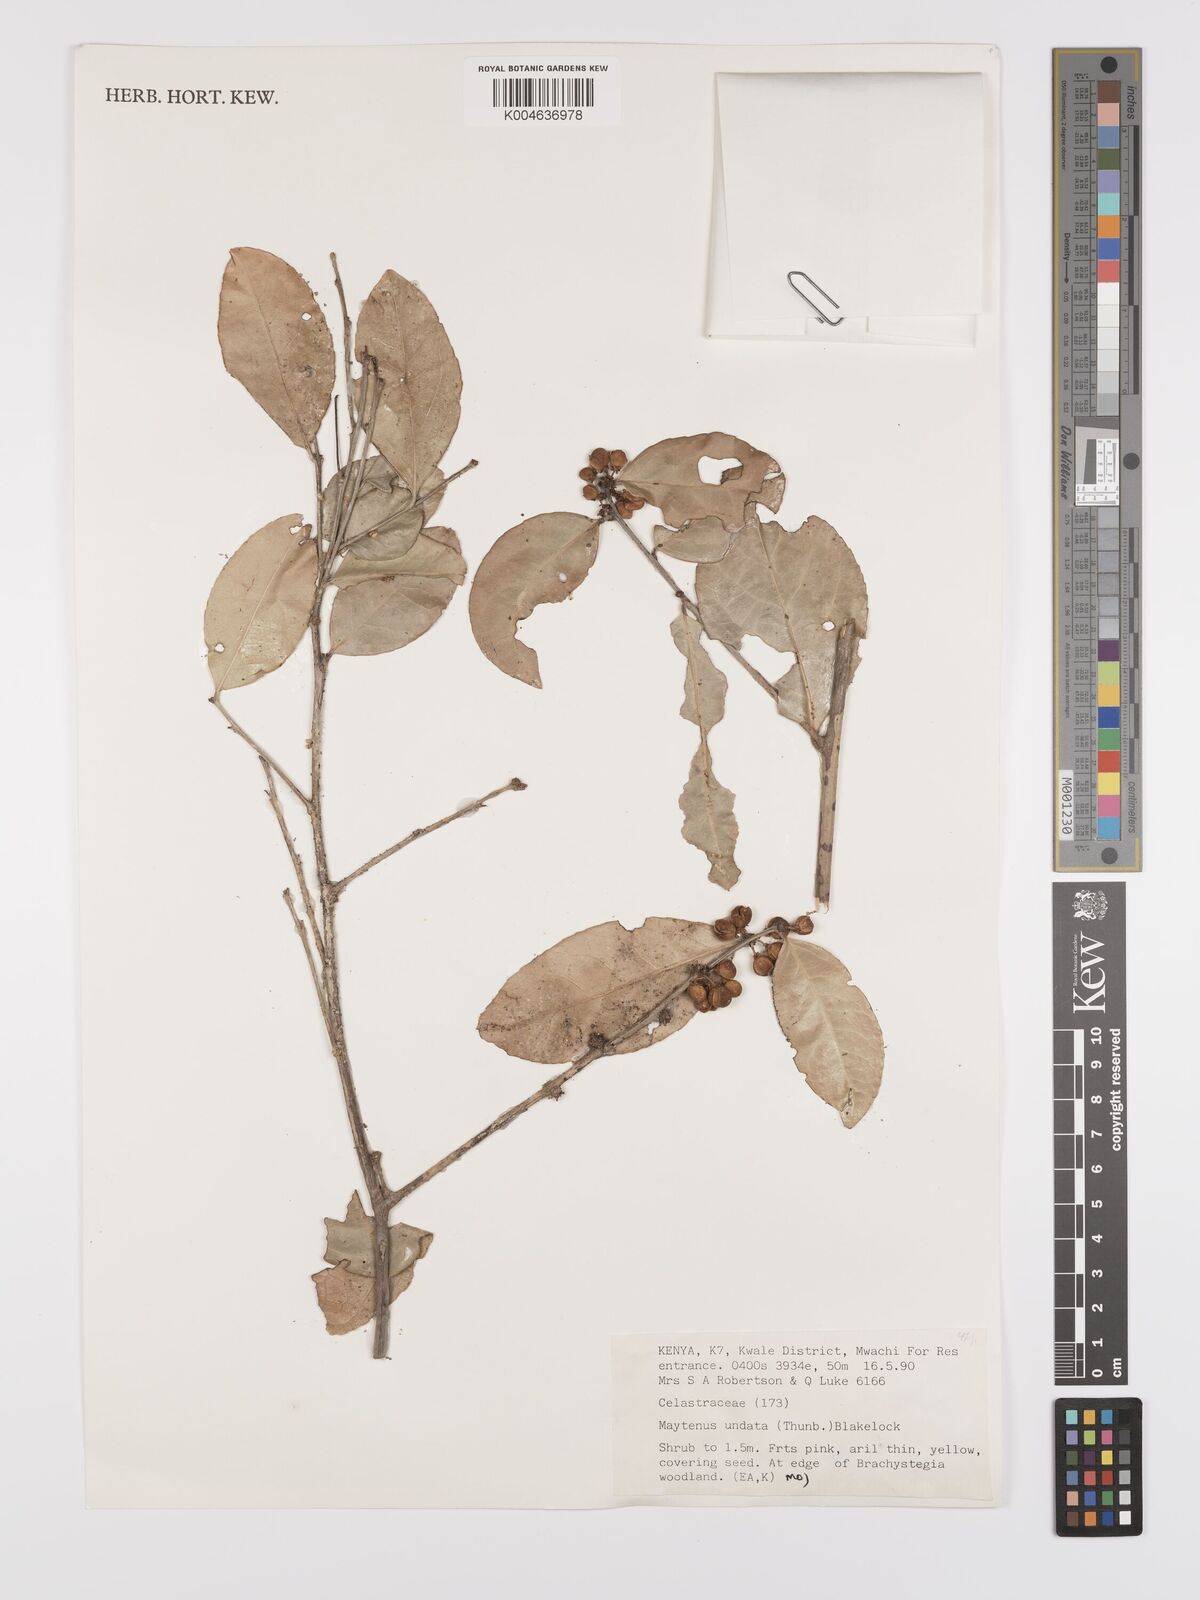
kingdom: Plantae
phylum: Tracheophyta
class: Magnoliopsida
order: Celastrales
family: Celastraceae
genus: Gymnosporia
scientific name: Gymnosporia undata
